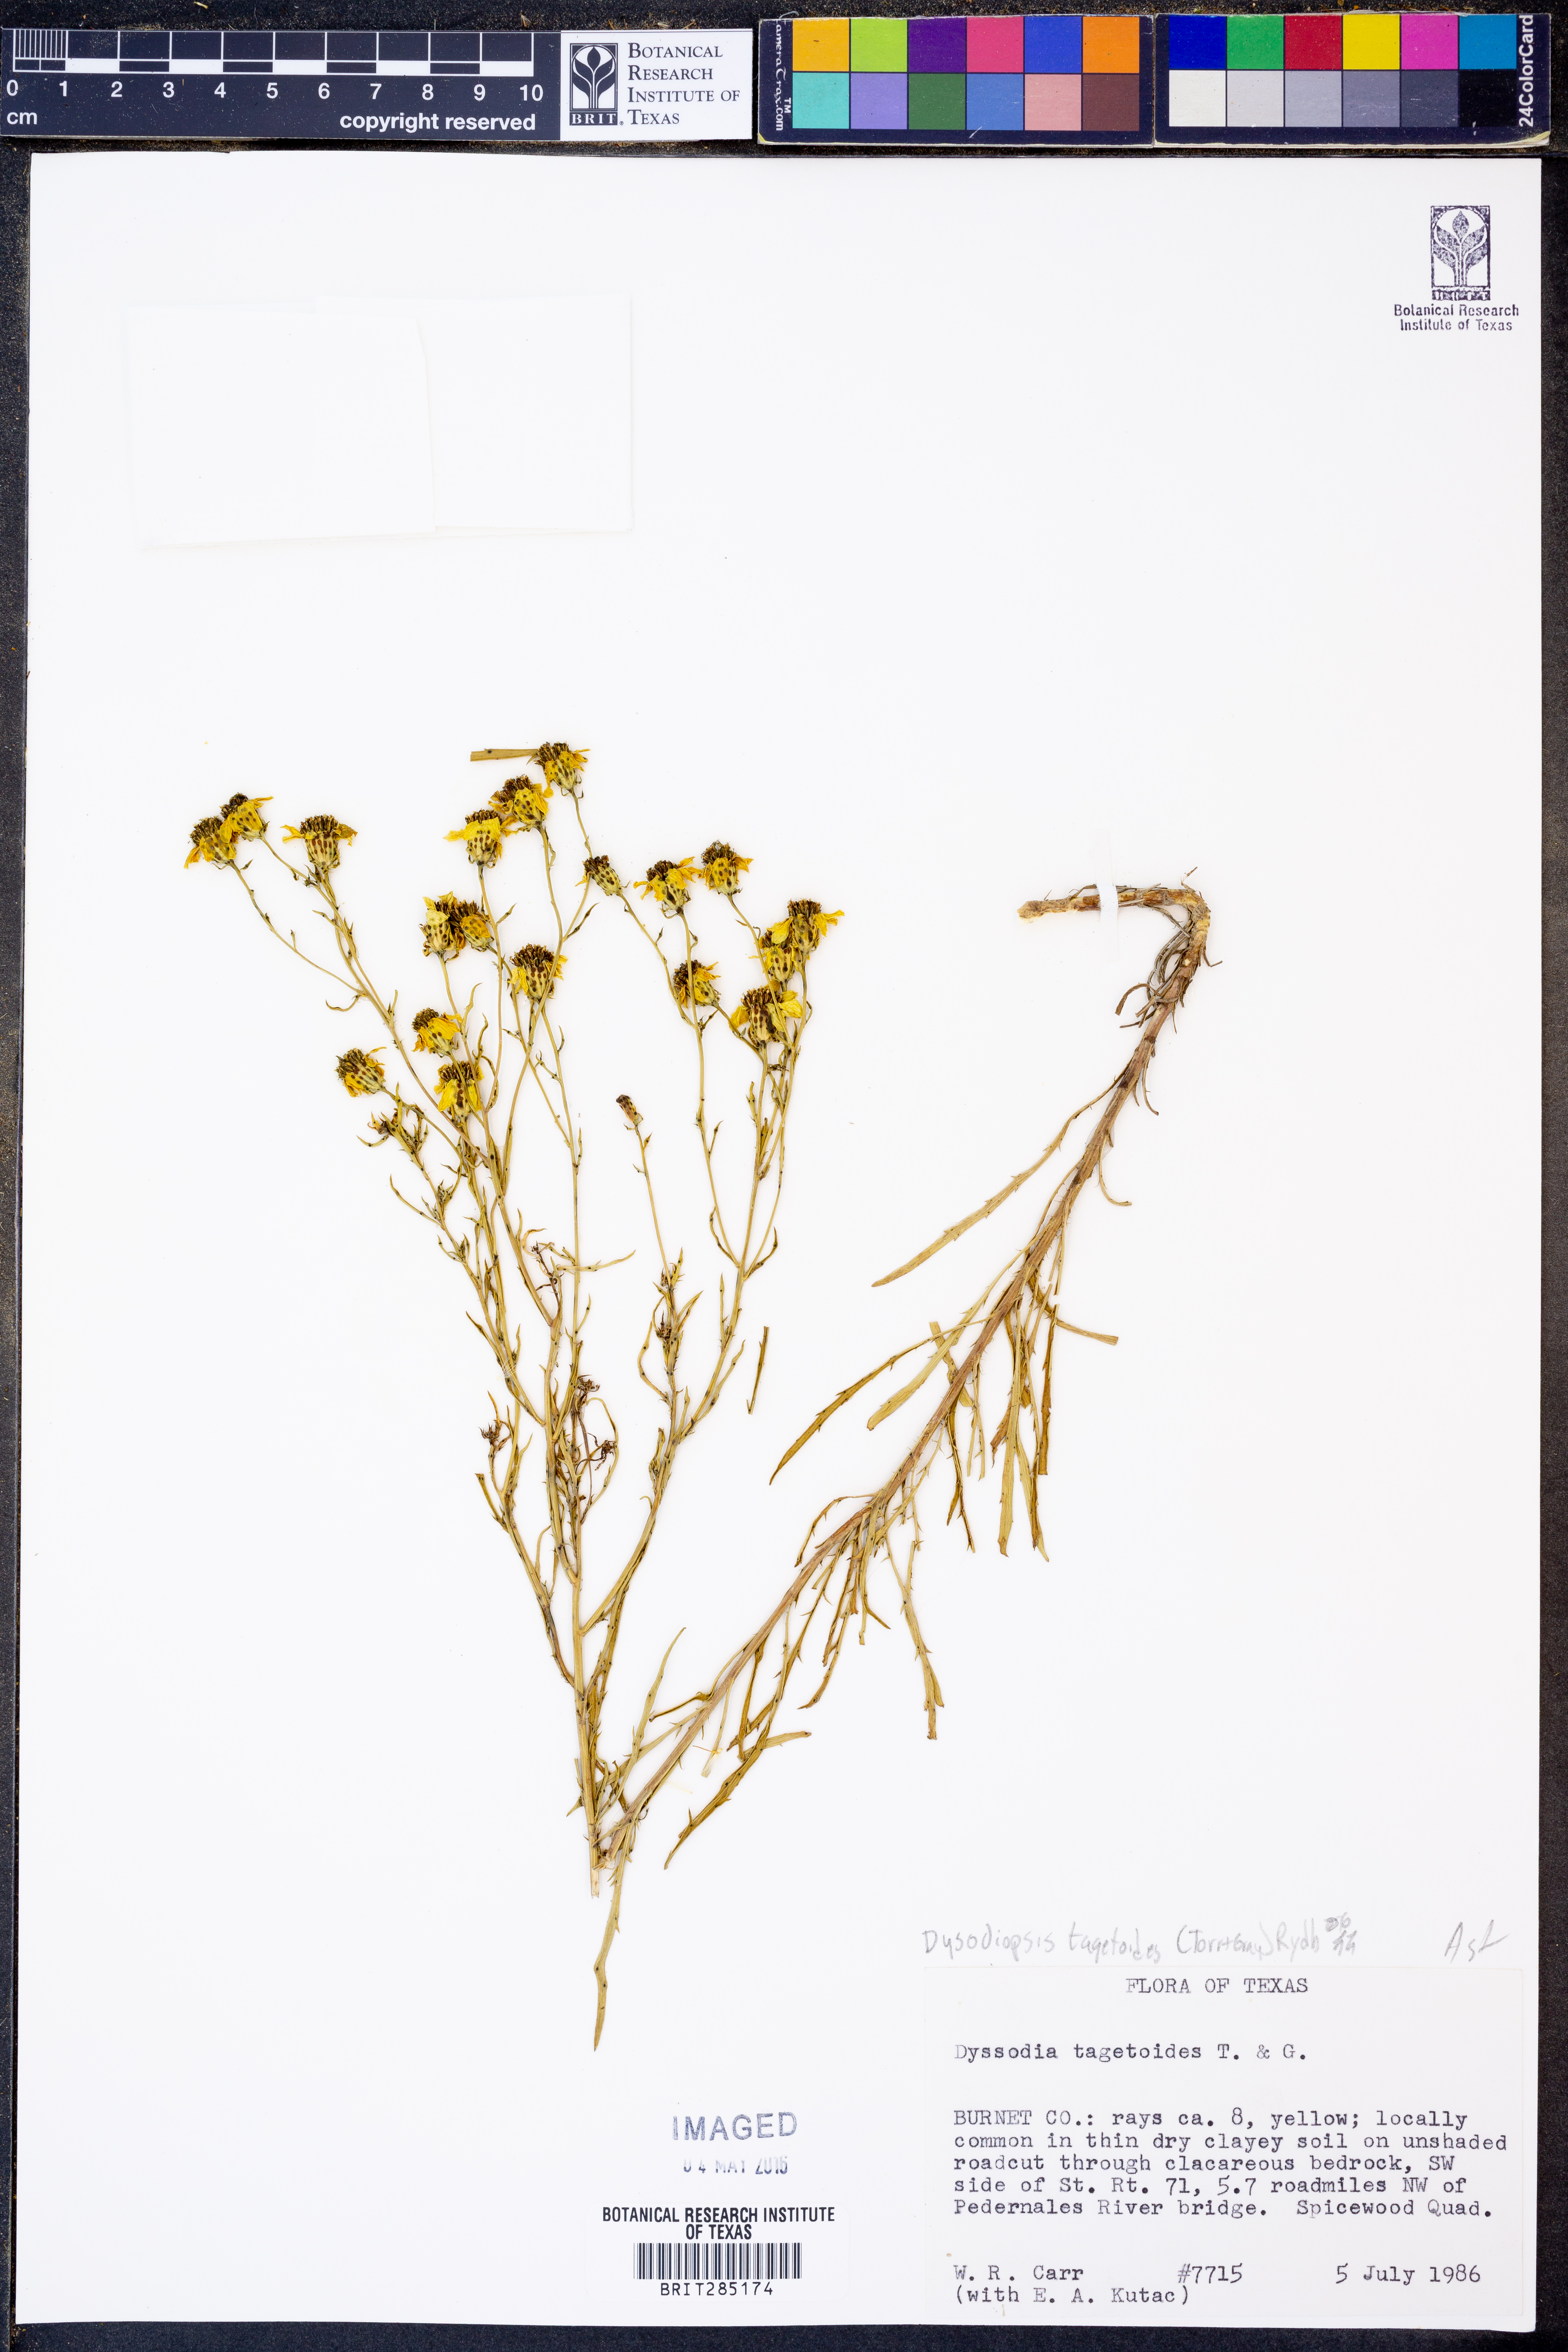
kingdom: Plantae
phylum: Tracheophyta
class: Magnoliopsida
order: Asterales
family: Asteraceae
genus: Dysodiopsis
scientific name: Dysodiopsis tagetoides
